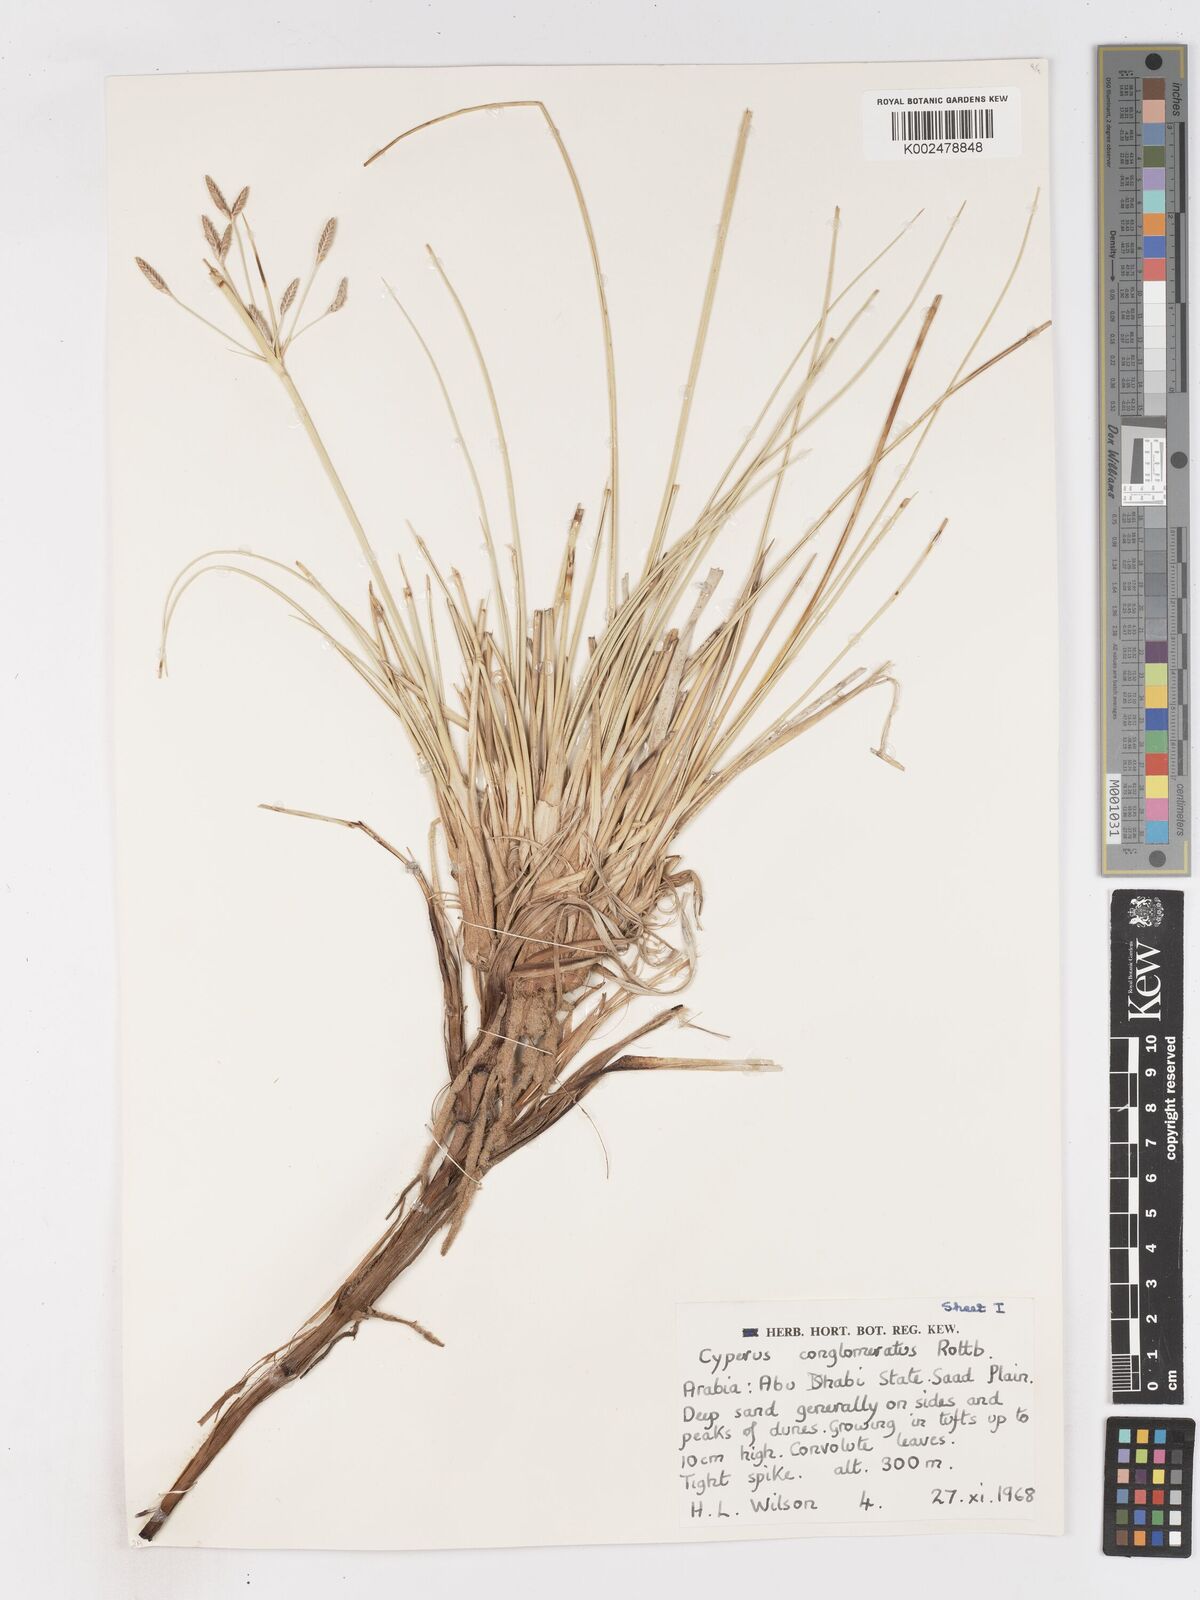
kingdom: Plantae
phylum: Tracheophyta
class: Liliopsida
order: Poales
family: Cyperaceae
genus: Cyperus
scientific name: Cyperus aucheri
